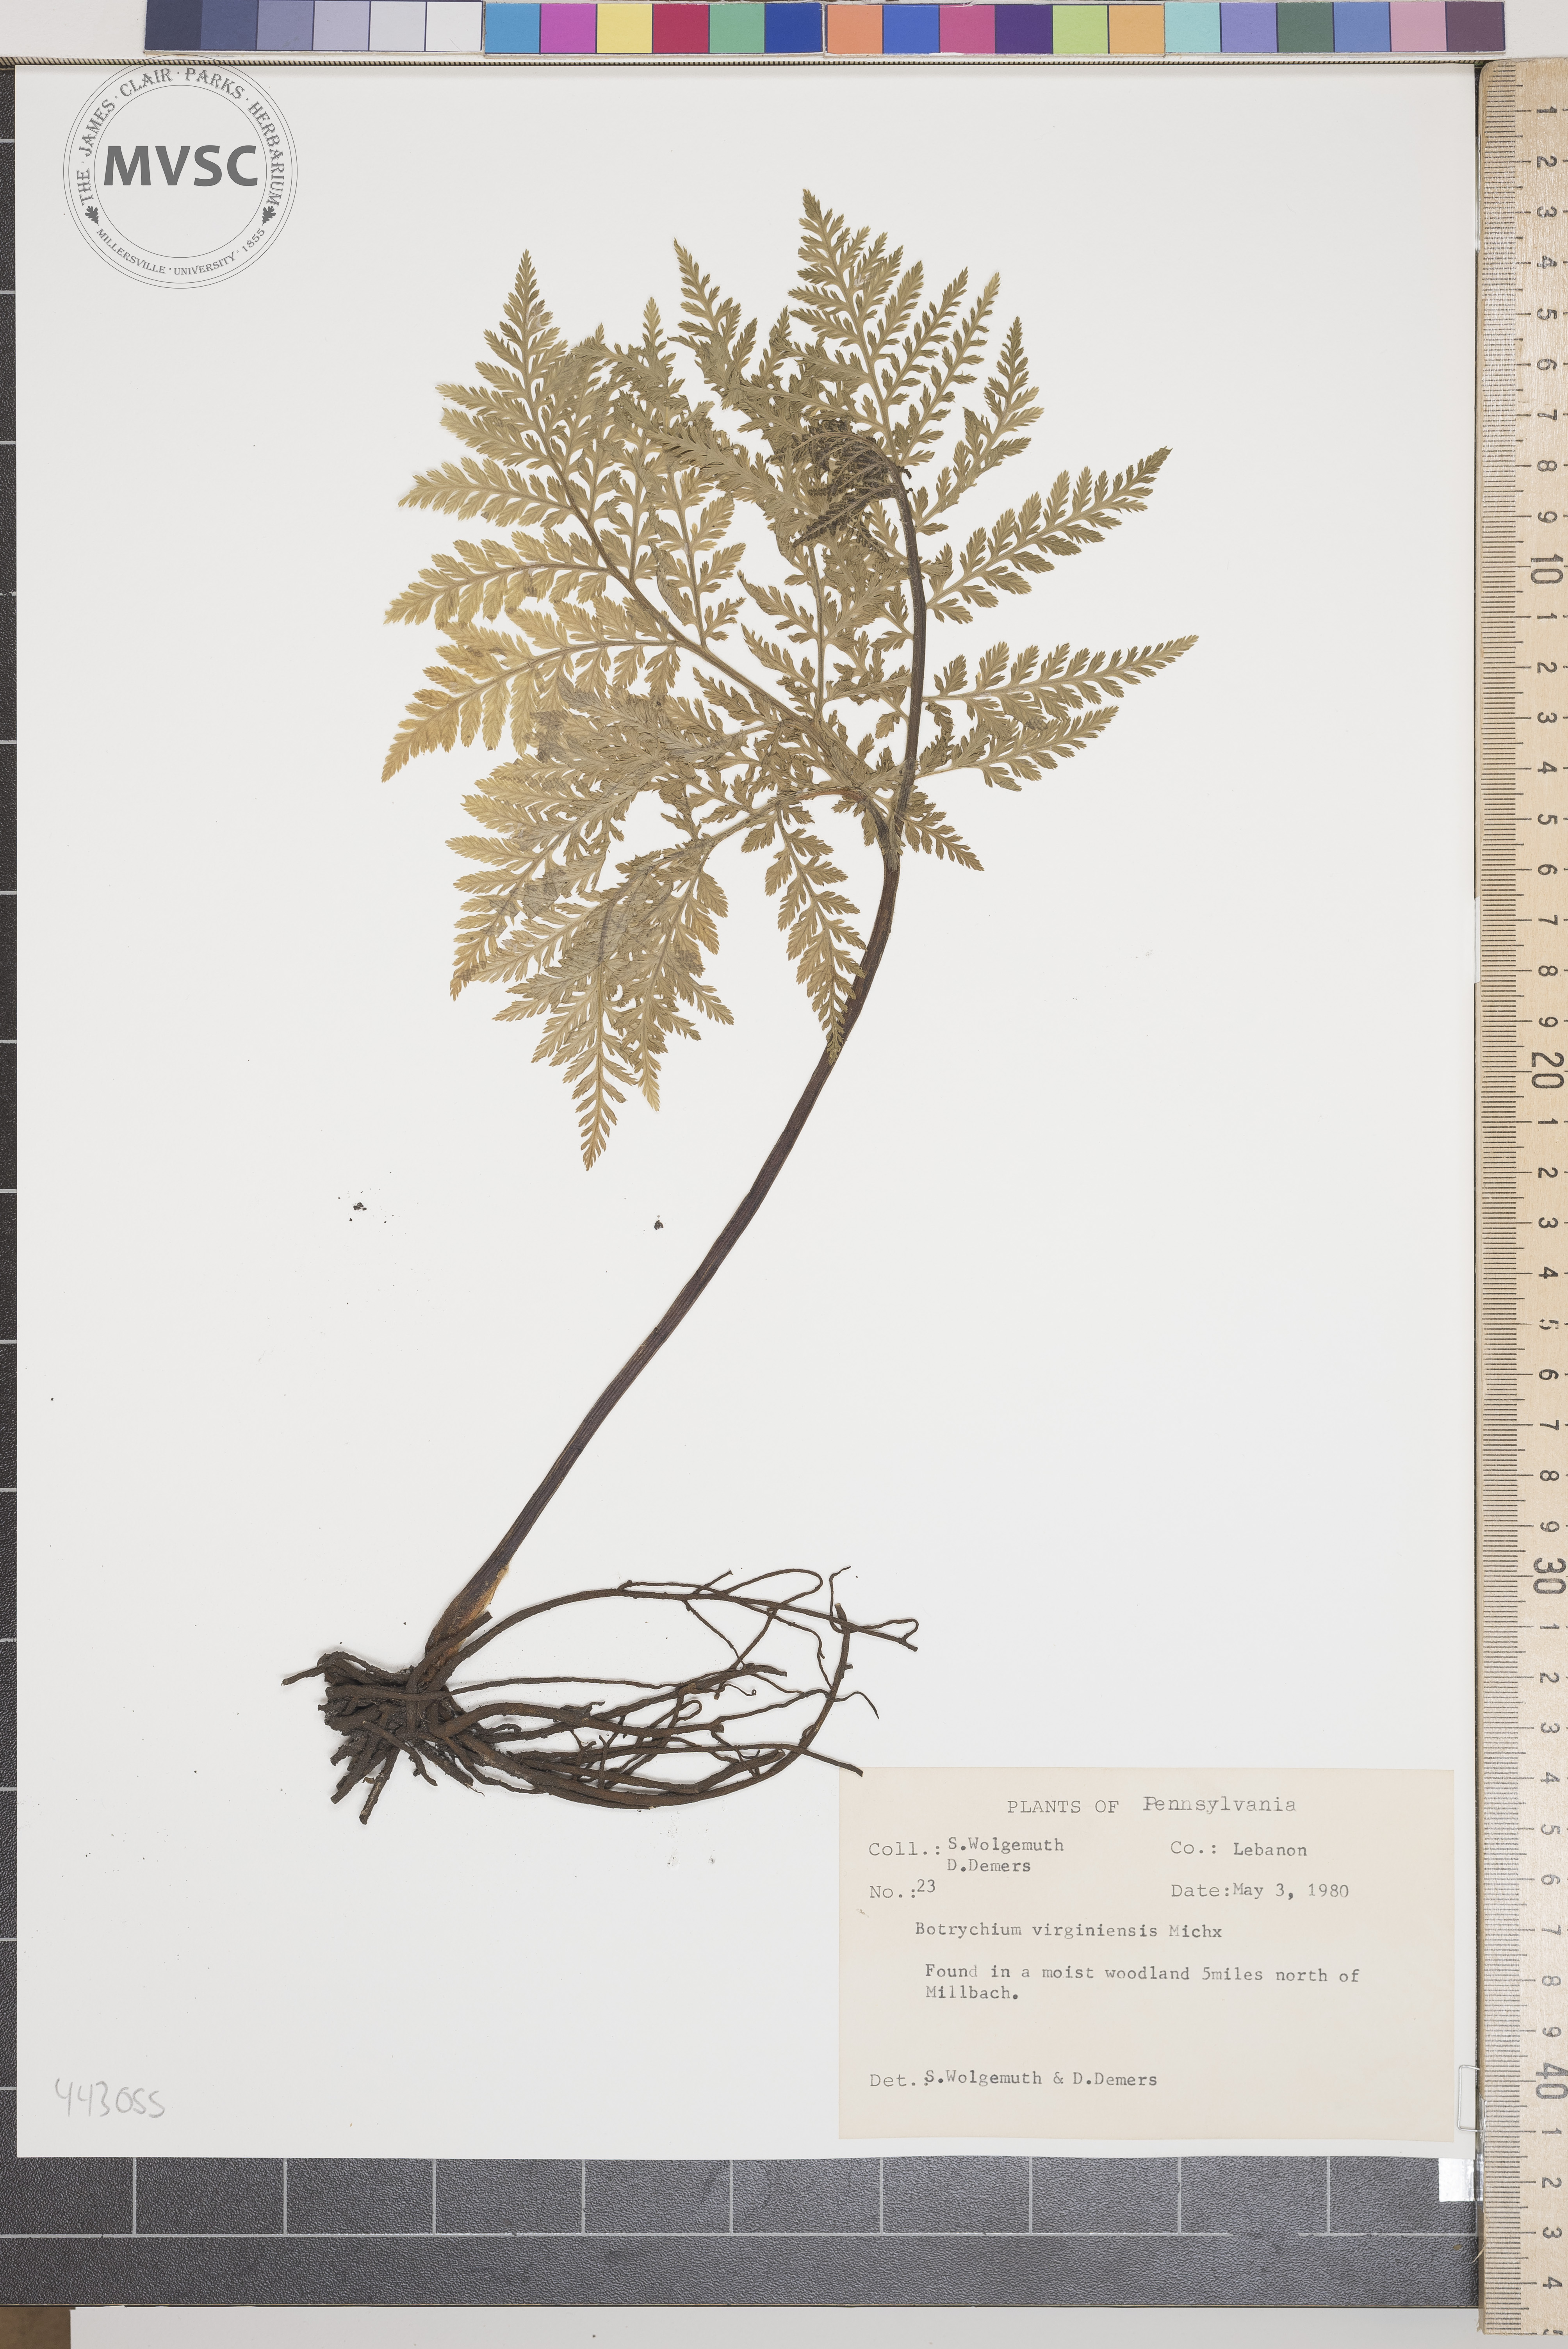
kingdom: Plantae
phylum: Tracheophyta
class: Polypodiopsida
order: Ophioglossales
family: Ophioglossaceae
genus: Botrychium
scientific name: Botrychium virginianum
